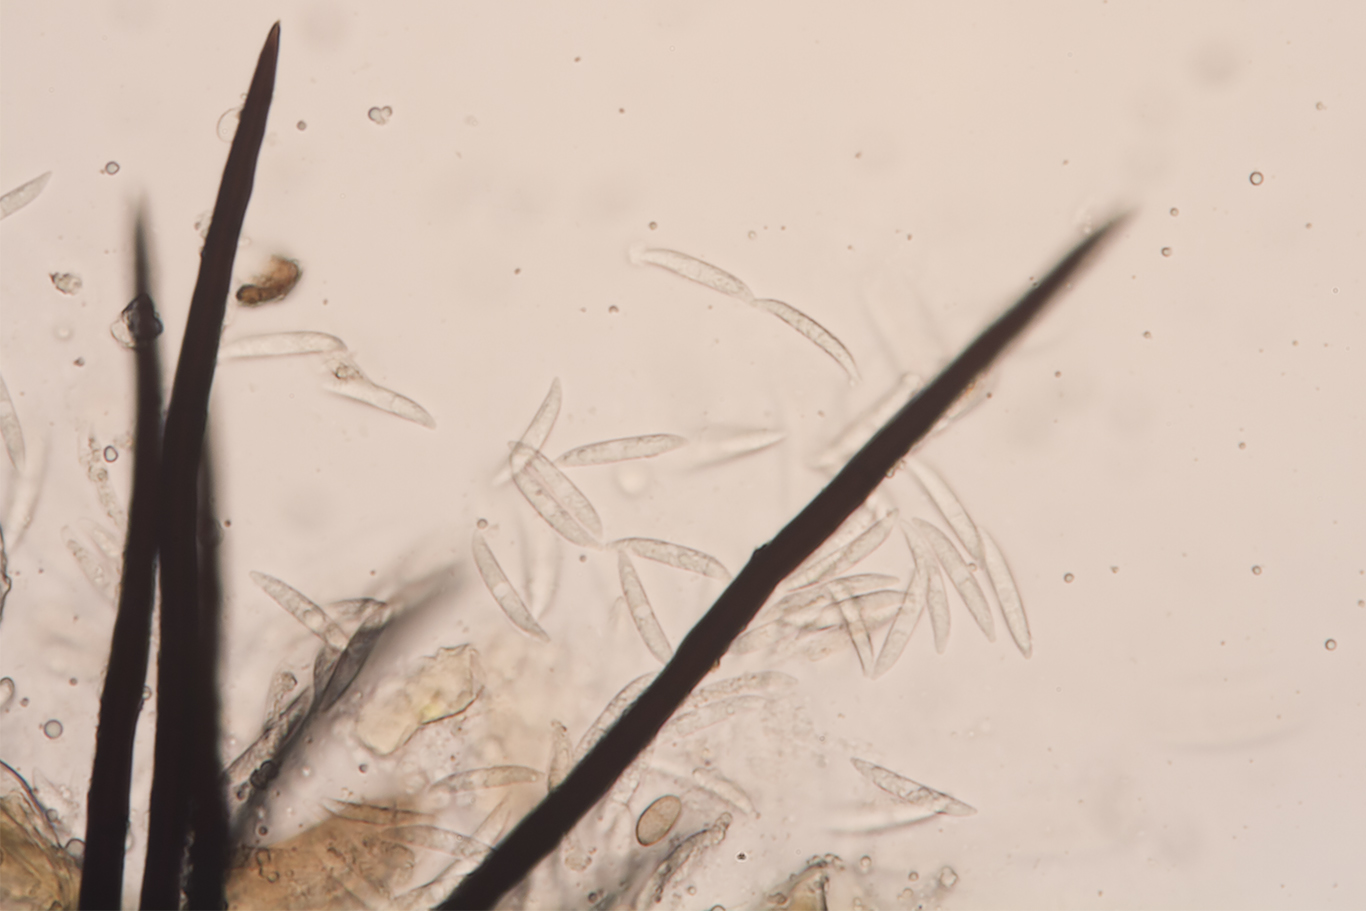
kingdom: Fungi
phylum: Ascomycota
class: Sordariomycetes
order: Glomerellales
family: Glomerellaceae
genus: Colletotrichum
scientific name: Colletotrichum
